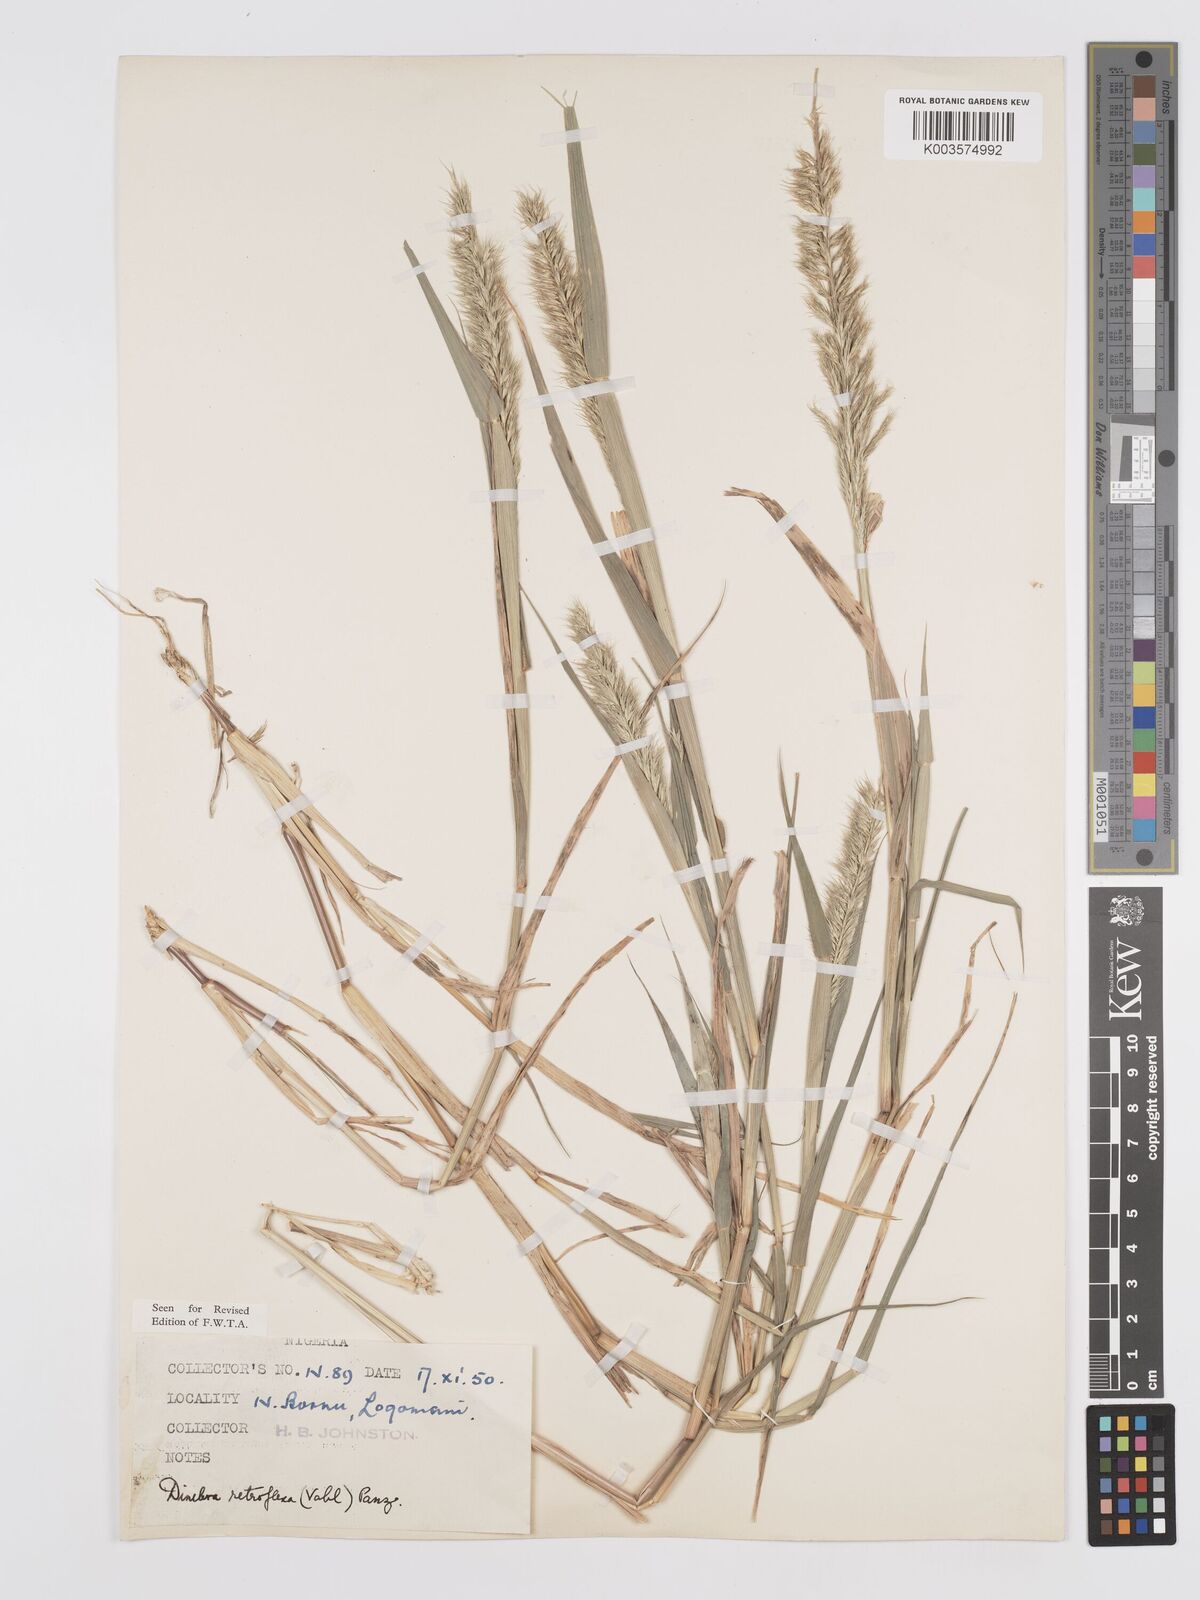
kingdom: Plantae
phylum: Tracheophyta
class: Liliopsida
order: Poales
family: Poaceae
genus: Dinebra
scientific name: Dinebra retroflexa
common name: Viper grass
